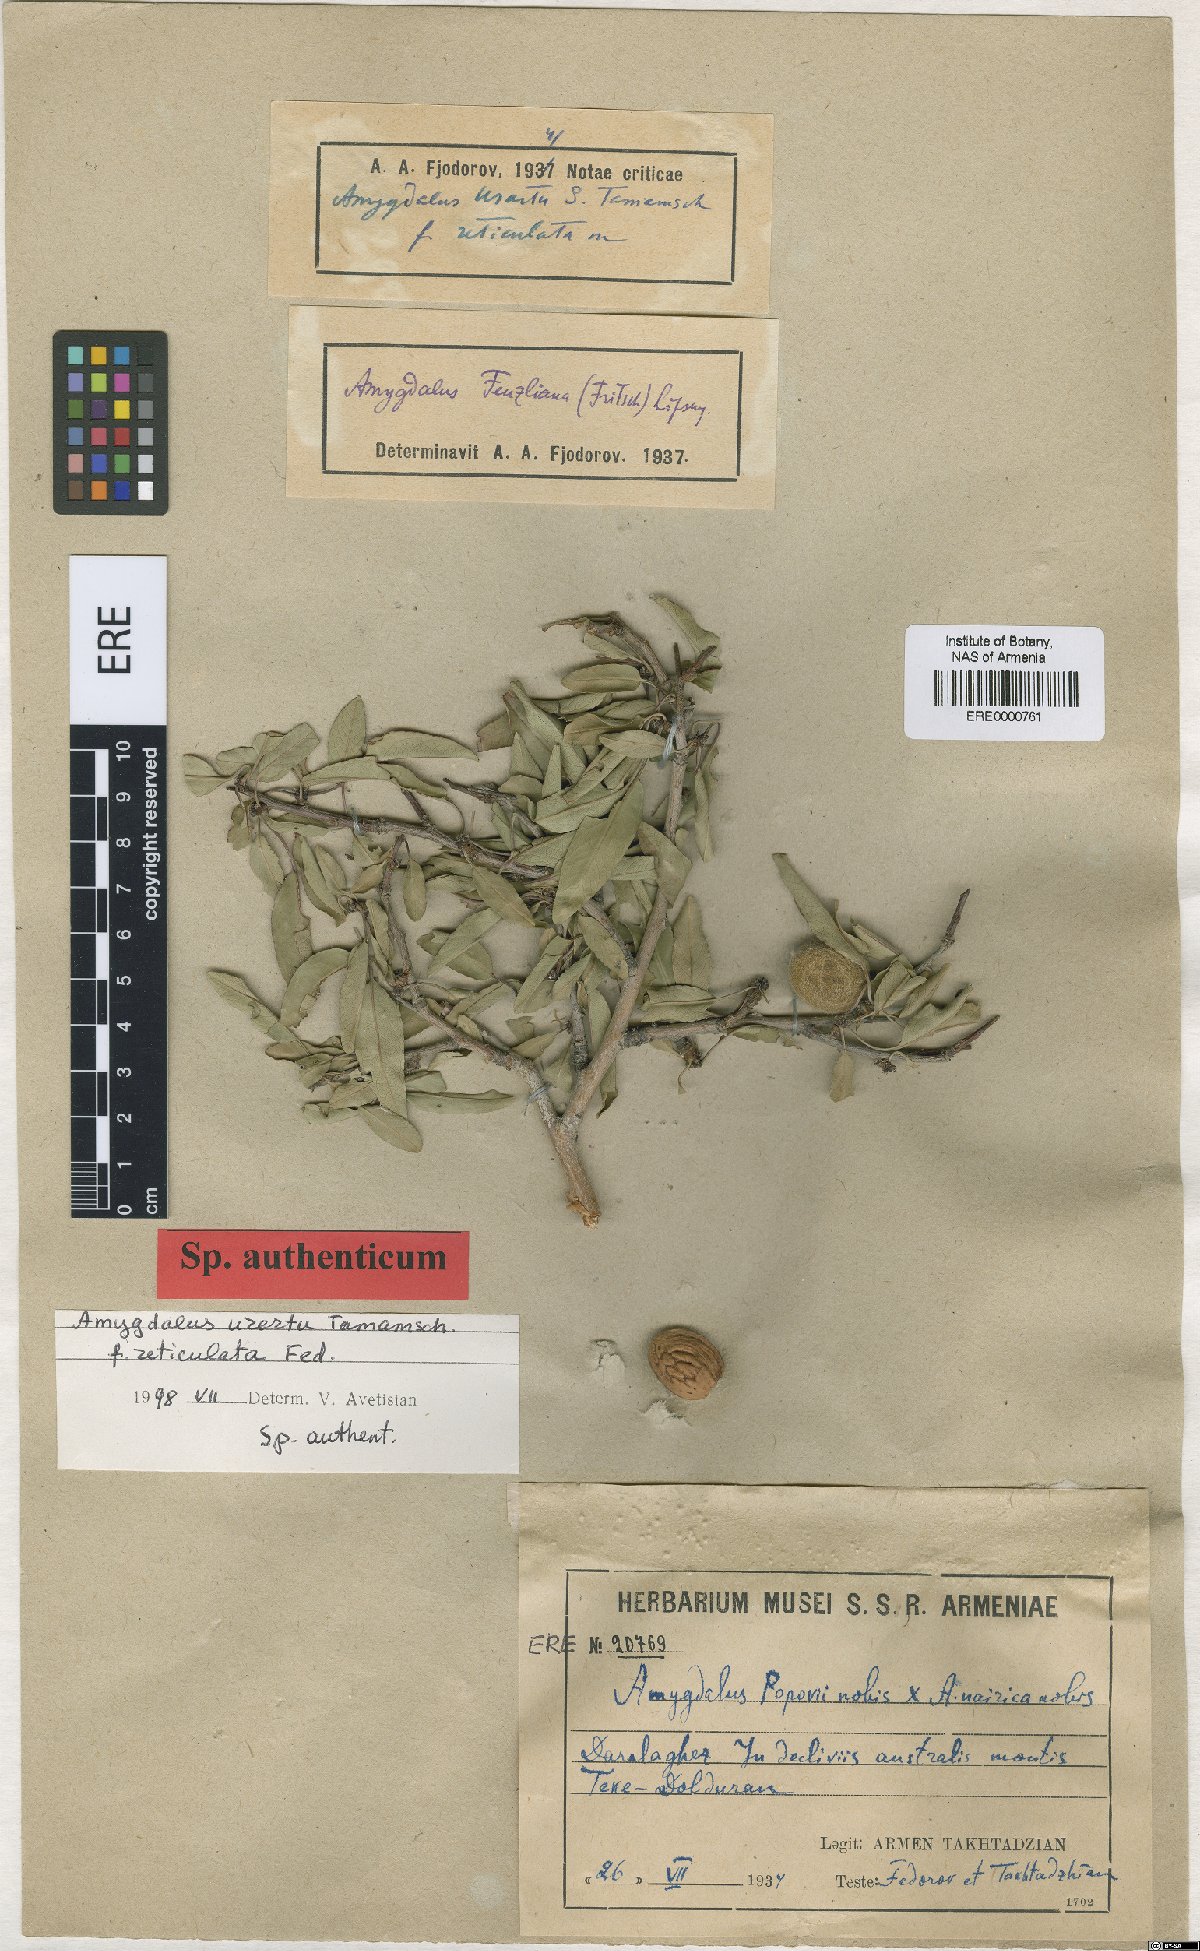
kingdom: Plantae
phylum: Tracheophyta
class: Magnoliopsida
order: Rosales
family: Rosaceae
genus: Prunus
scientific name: Prunus urartu
